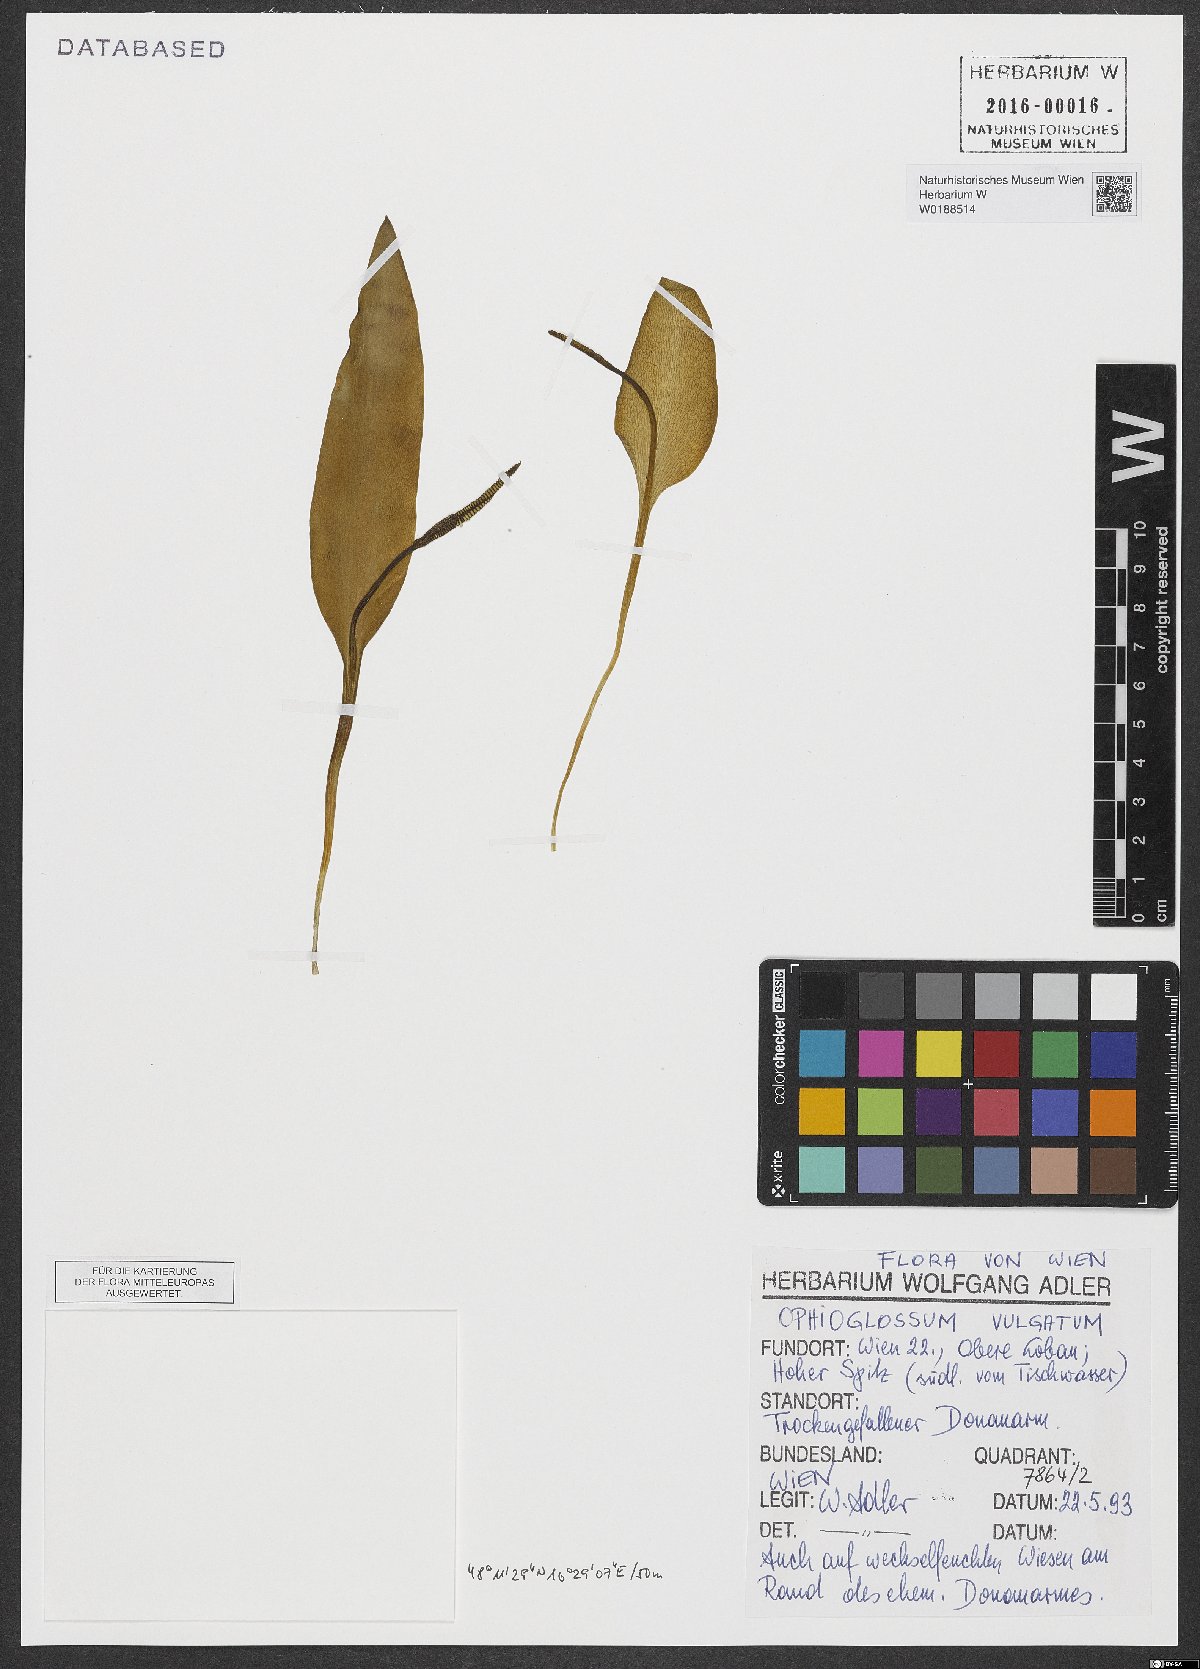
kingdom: Plantae
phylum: Tracheophyta
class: Polypodiopsida
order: Ophioglossales
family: Ophioglossaceae
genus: Ophioglossum
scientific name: Ophioglossum vulgatum
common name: Adder's-tongue
